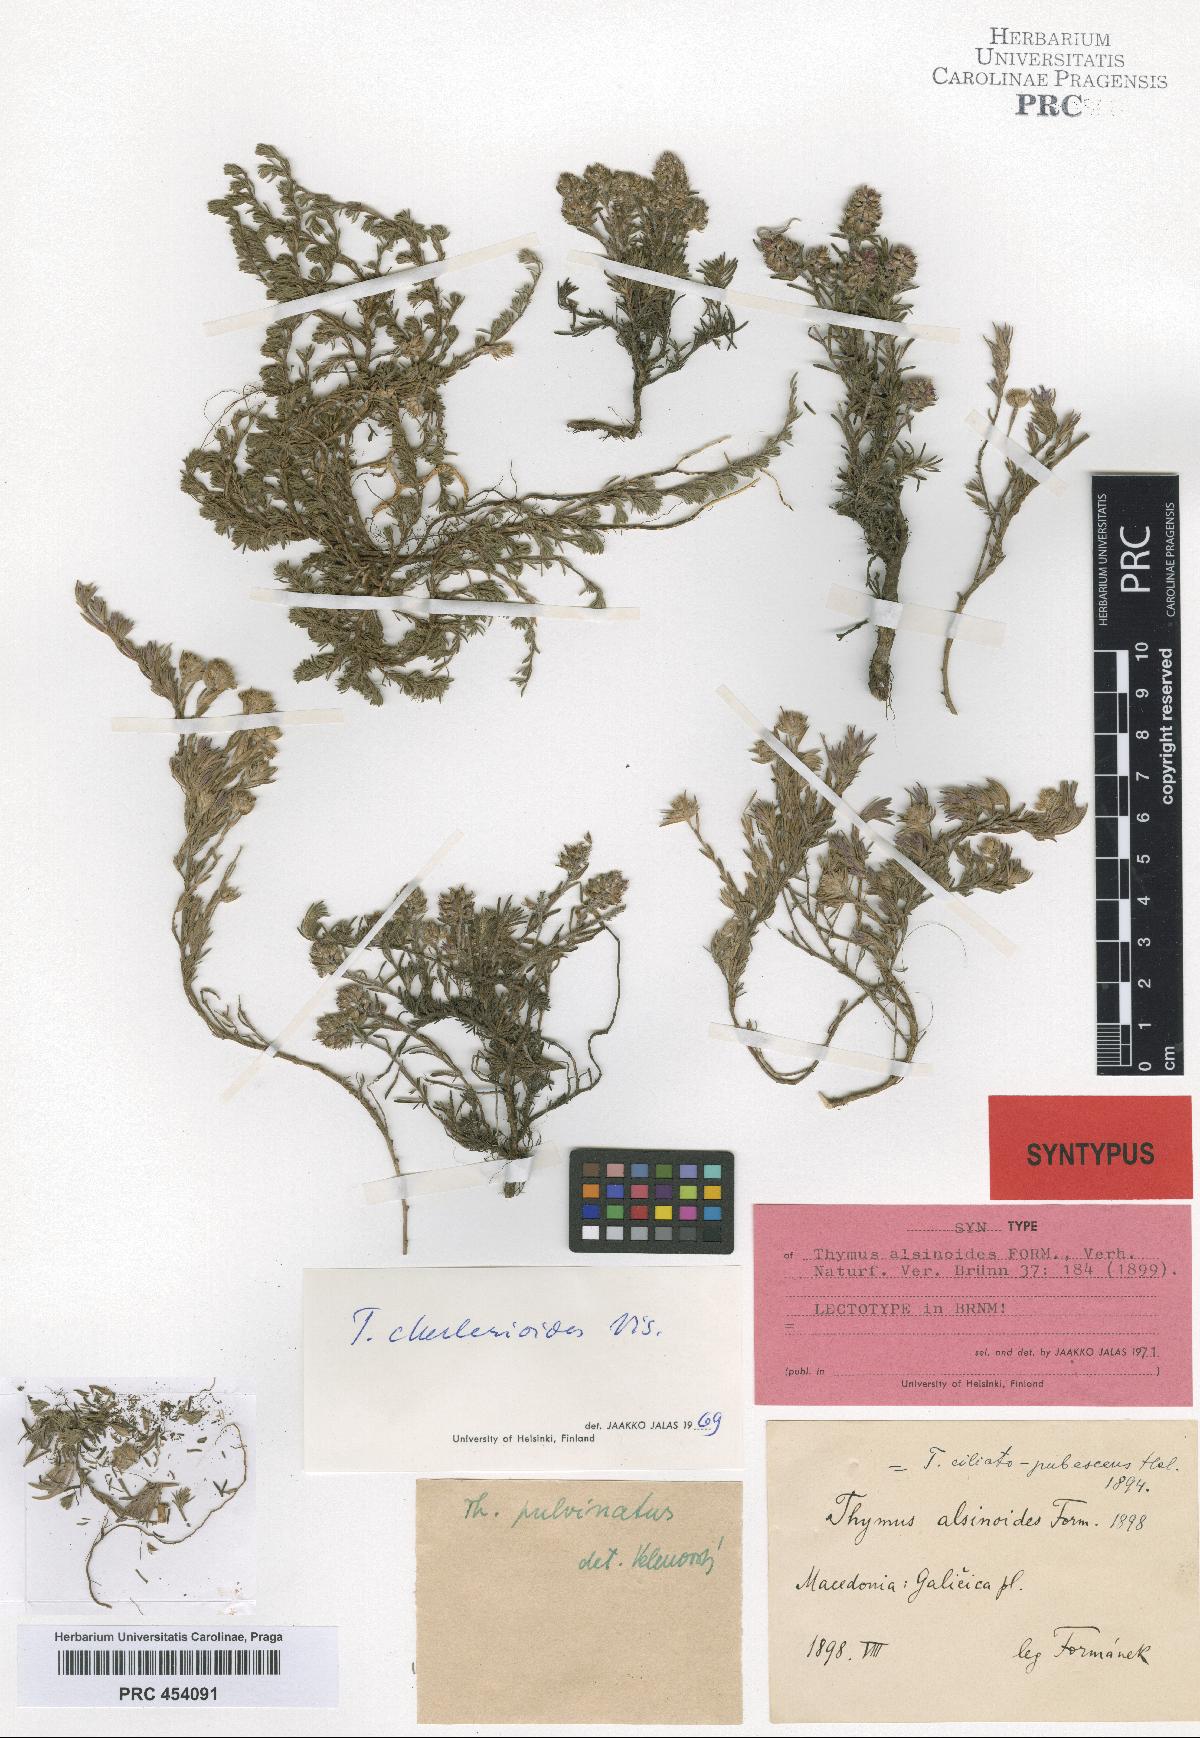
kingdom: Plantae
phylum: Tracheophyta
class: Magnoliopsida
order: Lamiales
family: Lamiaceae
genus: Thymus
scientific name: Thymus alsinoides
